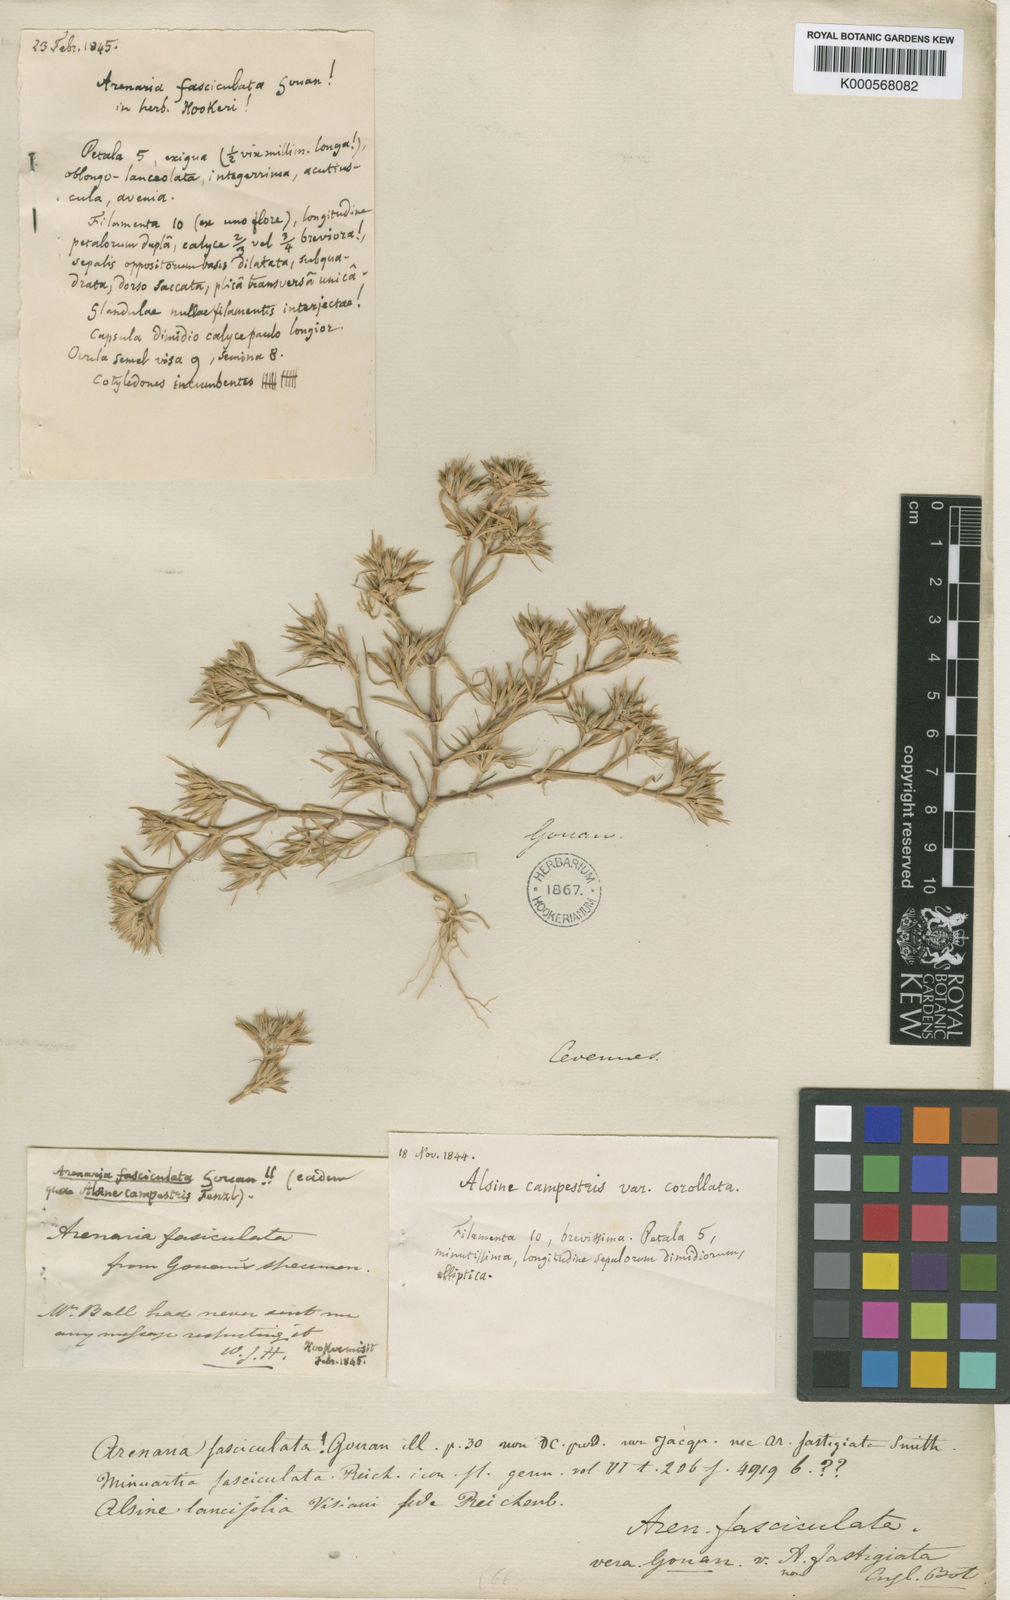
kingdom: Plantae
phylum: Tracheophyta
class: Magnoliopsida
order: Caryophyllales
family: Caryophyllaceae
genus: Minuartia
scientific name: Minuartia montana
